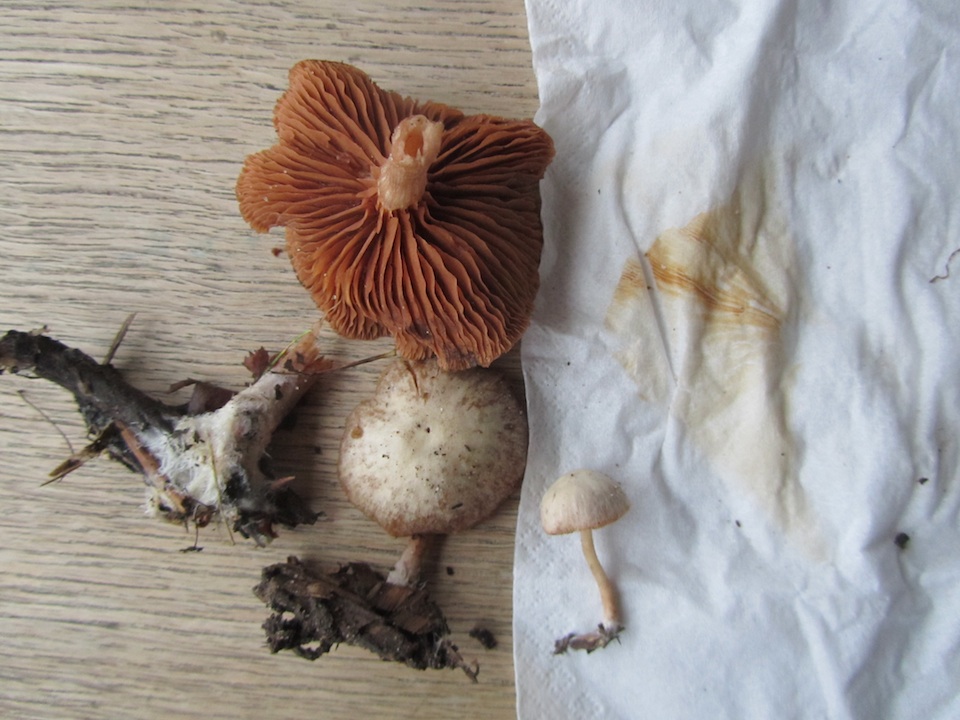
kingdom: Fungi
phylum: Basidiomycota
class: Agaricomycetes
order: Agaricales
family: Tubariaceae
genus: Tubaria
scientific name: Tubaria furfuracea
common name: kliddet fnughat
